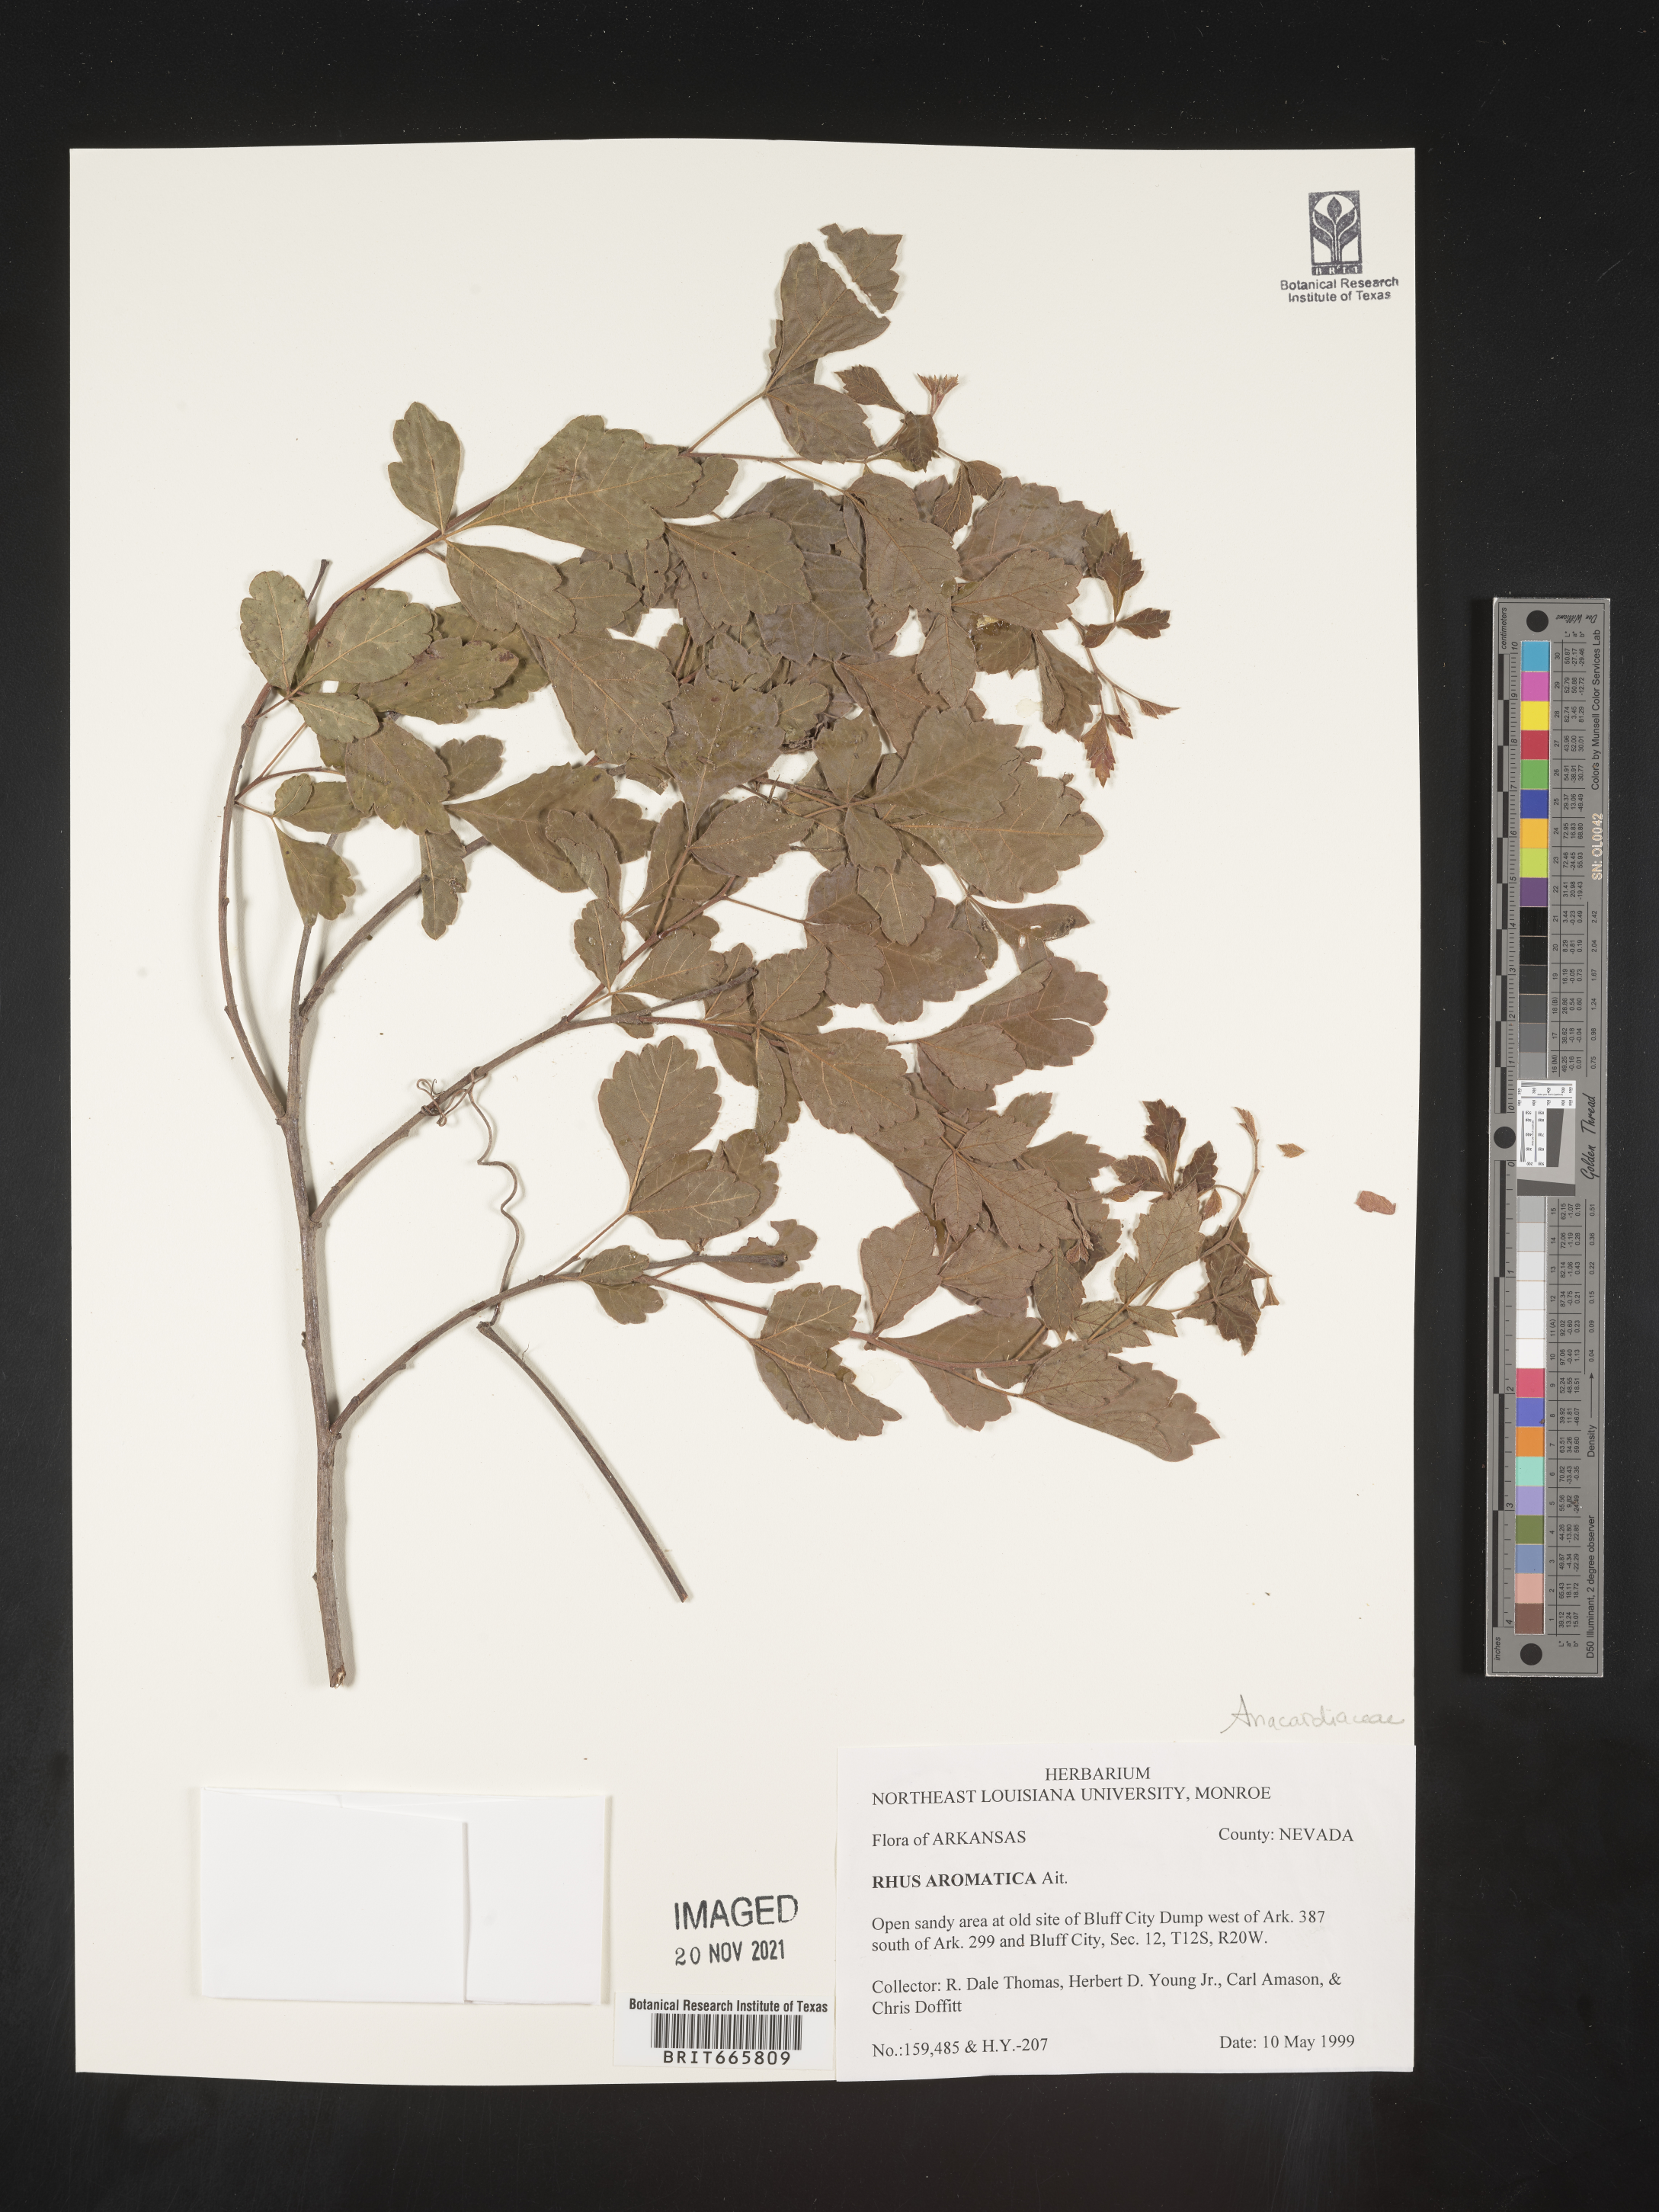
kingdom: Plantae
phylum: Tracheophyta
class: Magnoliopsida
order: Sapindales
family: Anacardiaceae
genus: Rhus
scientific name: Rhus aromatica
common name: Aromatic sumac
